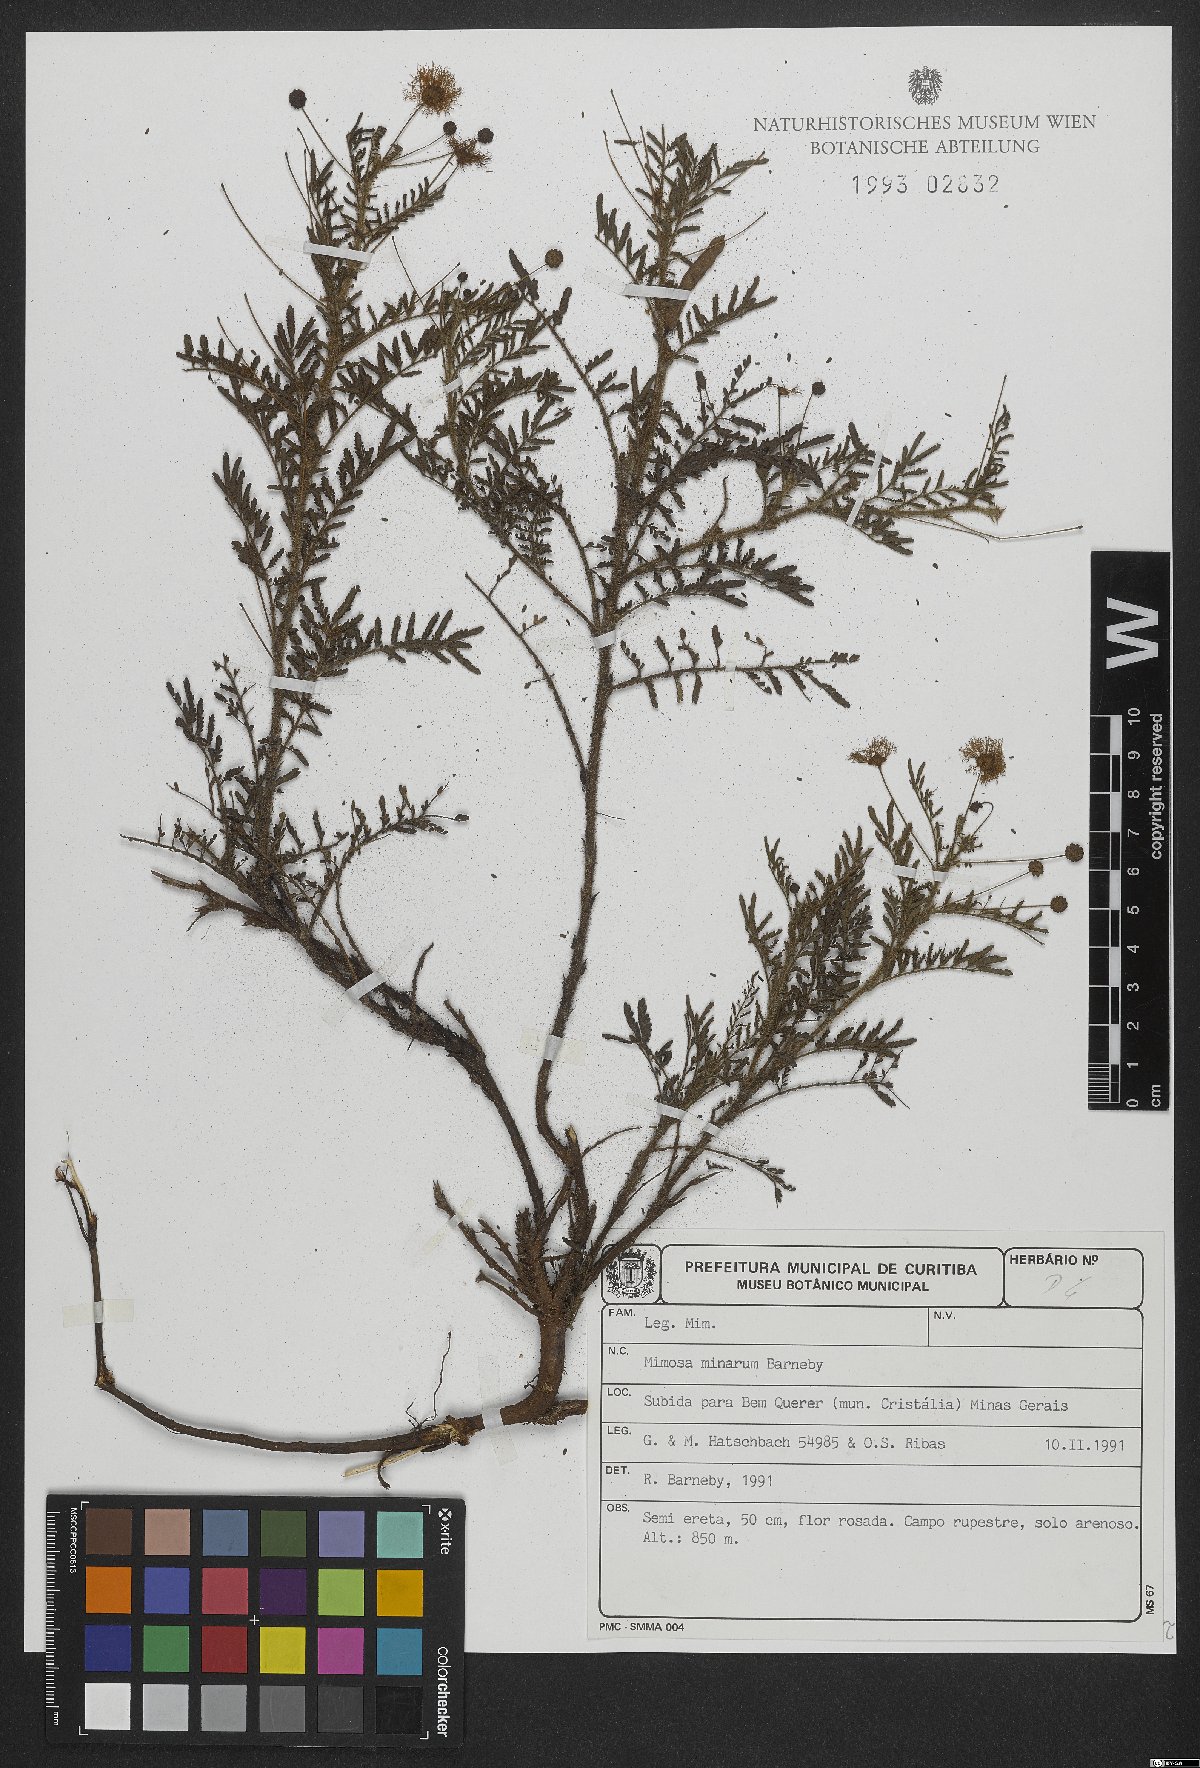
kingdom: Plantae
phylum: Tracheophyta
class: Magnoliopsida
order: Fabales
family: Fabaceae
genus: Mimosa
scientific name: Mimosa minarum
